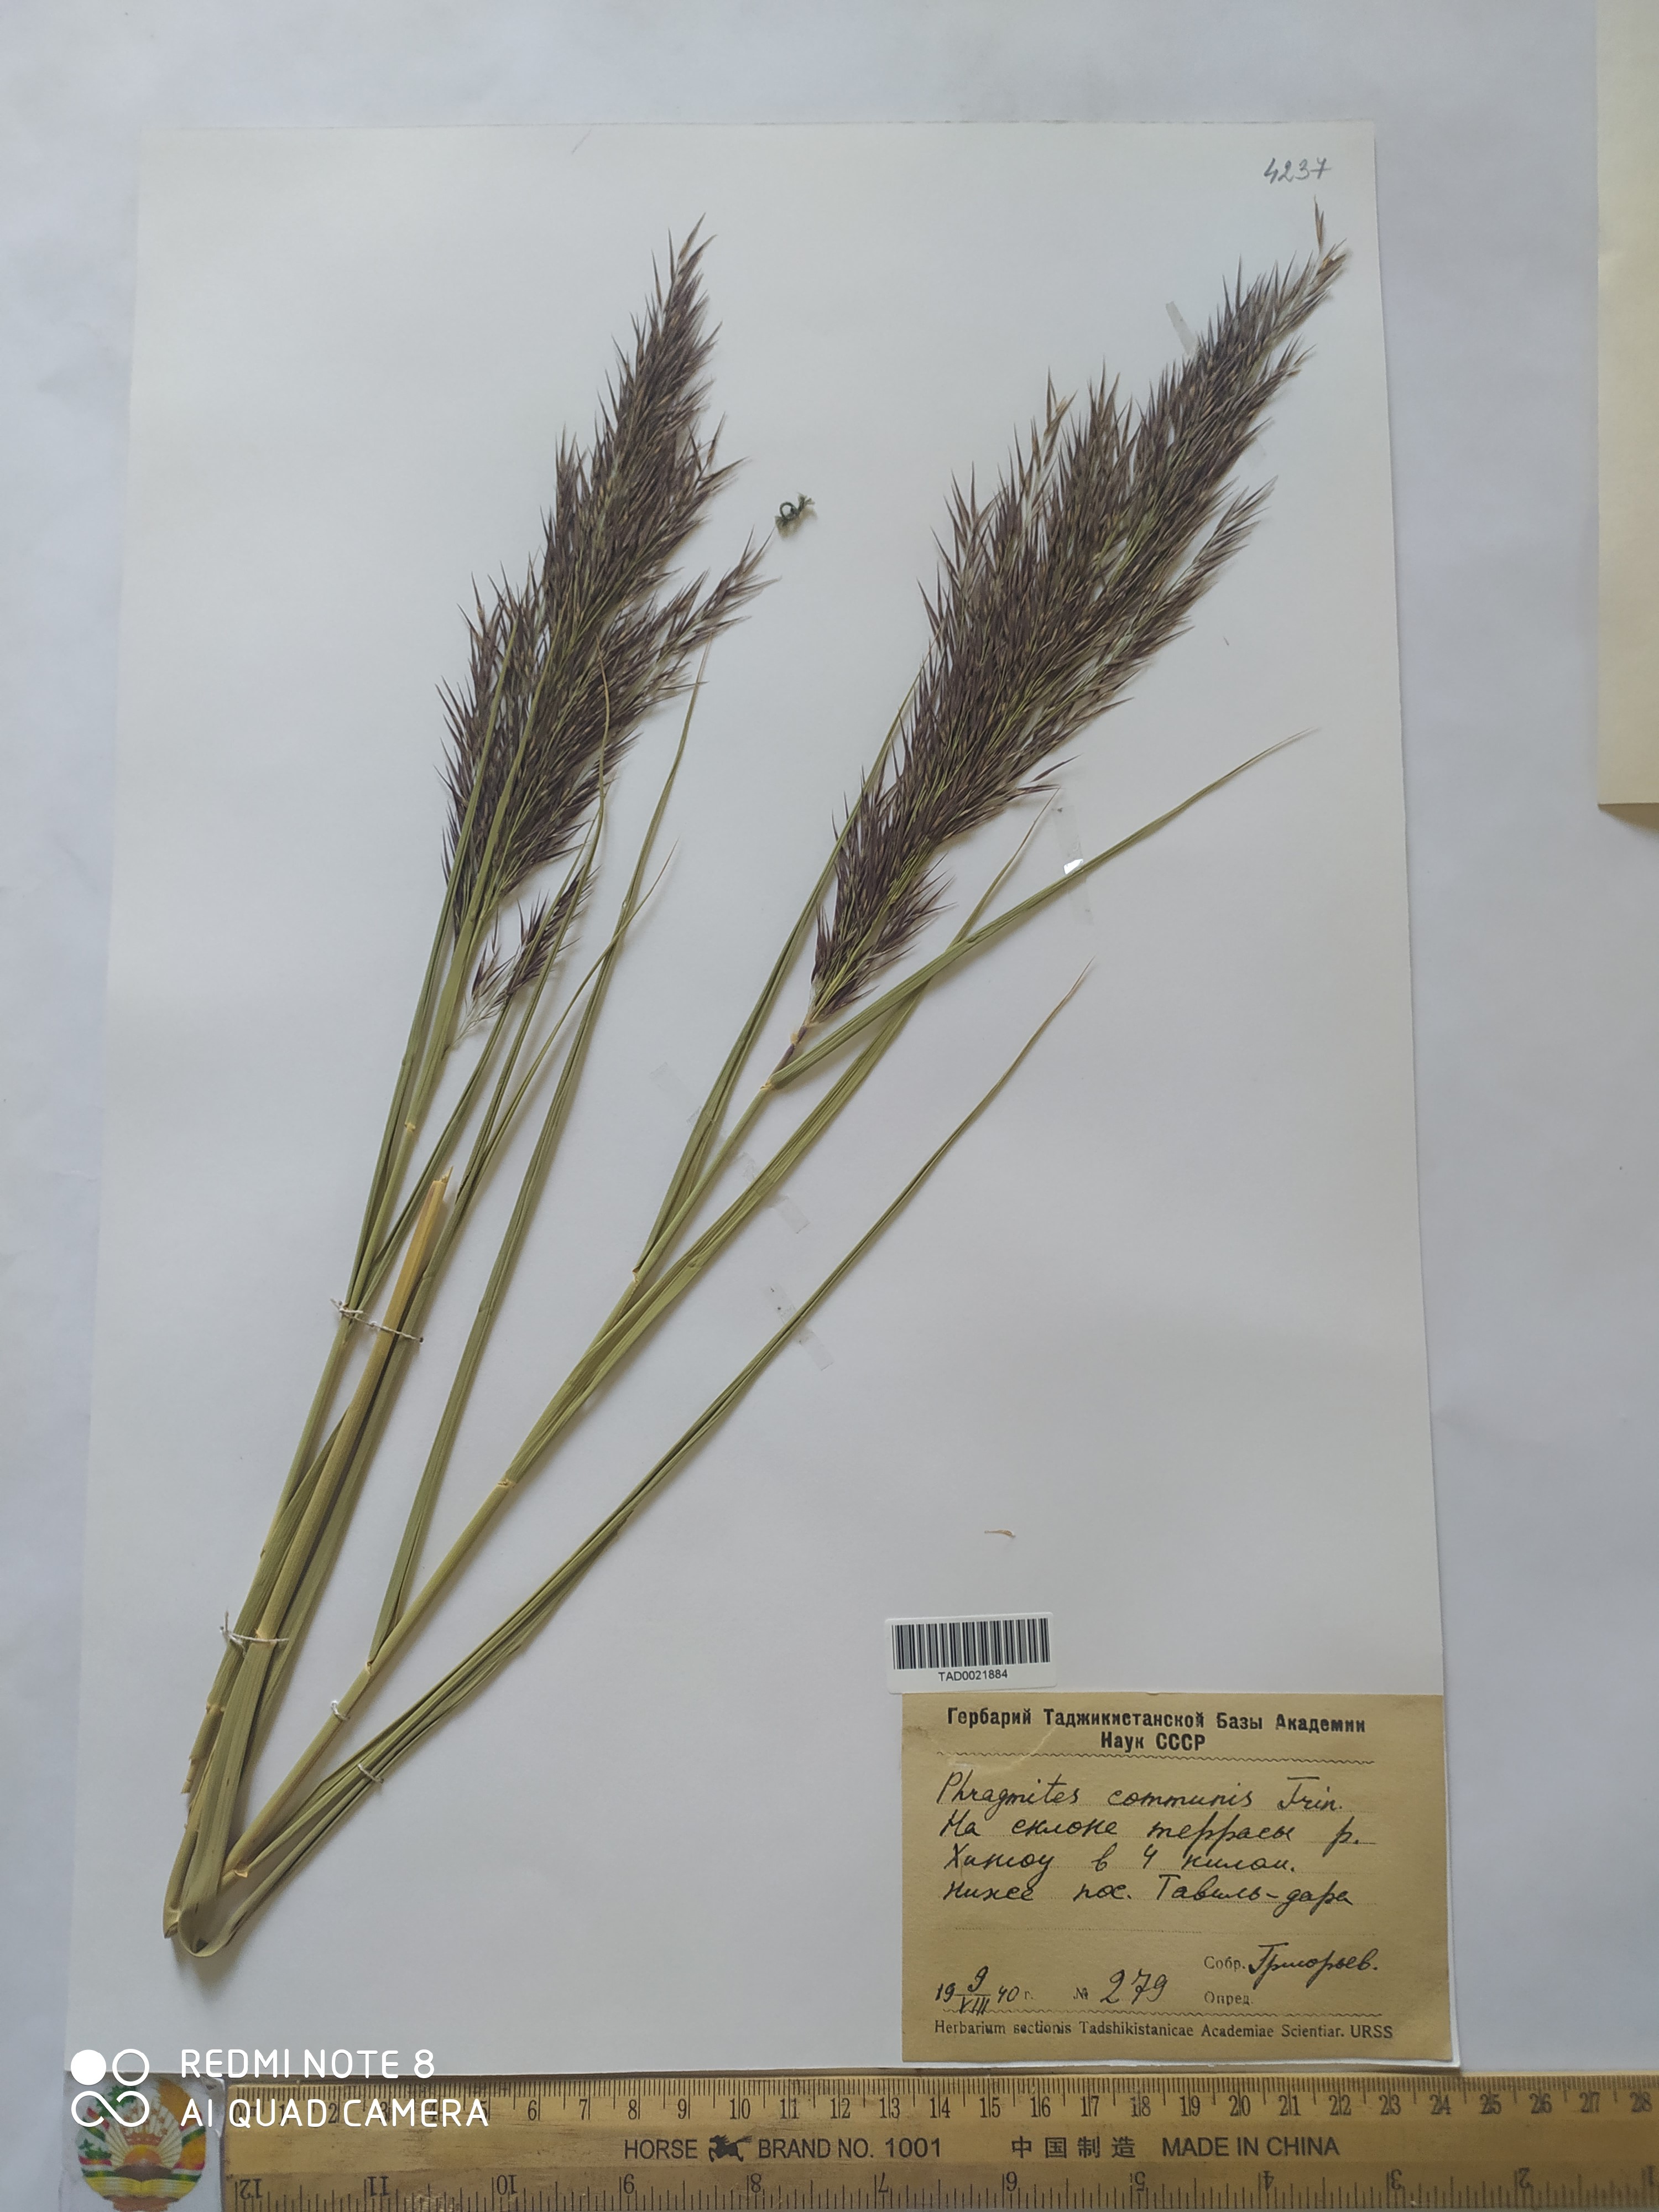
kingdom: Plantae
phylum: Tracheophyta
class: Liliopsida
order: Poales
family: Poaceae
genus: Phragmites
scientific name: Phragmites australis
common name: Common reed
